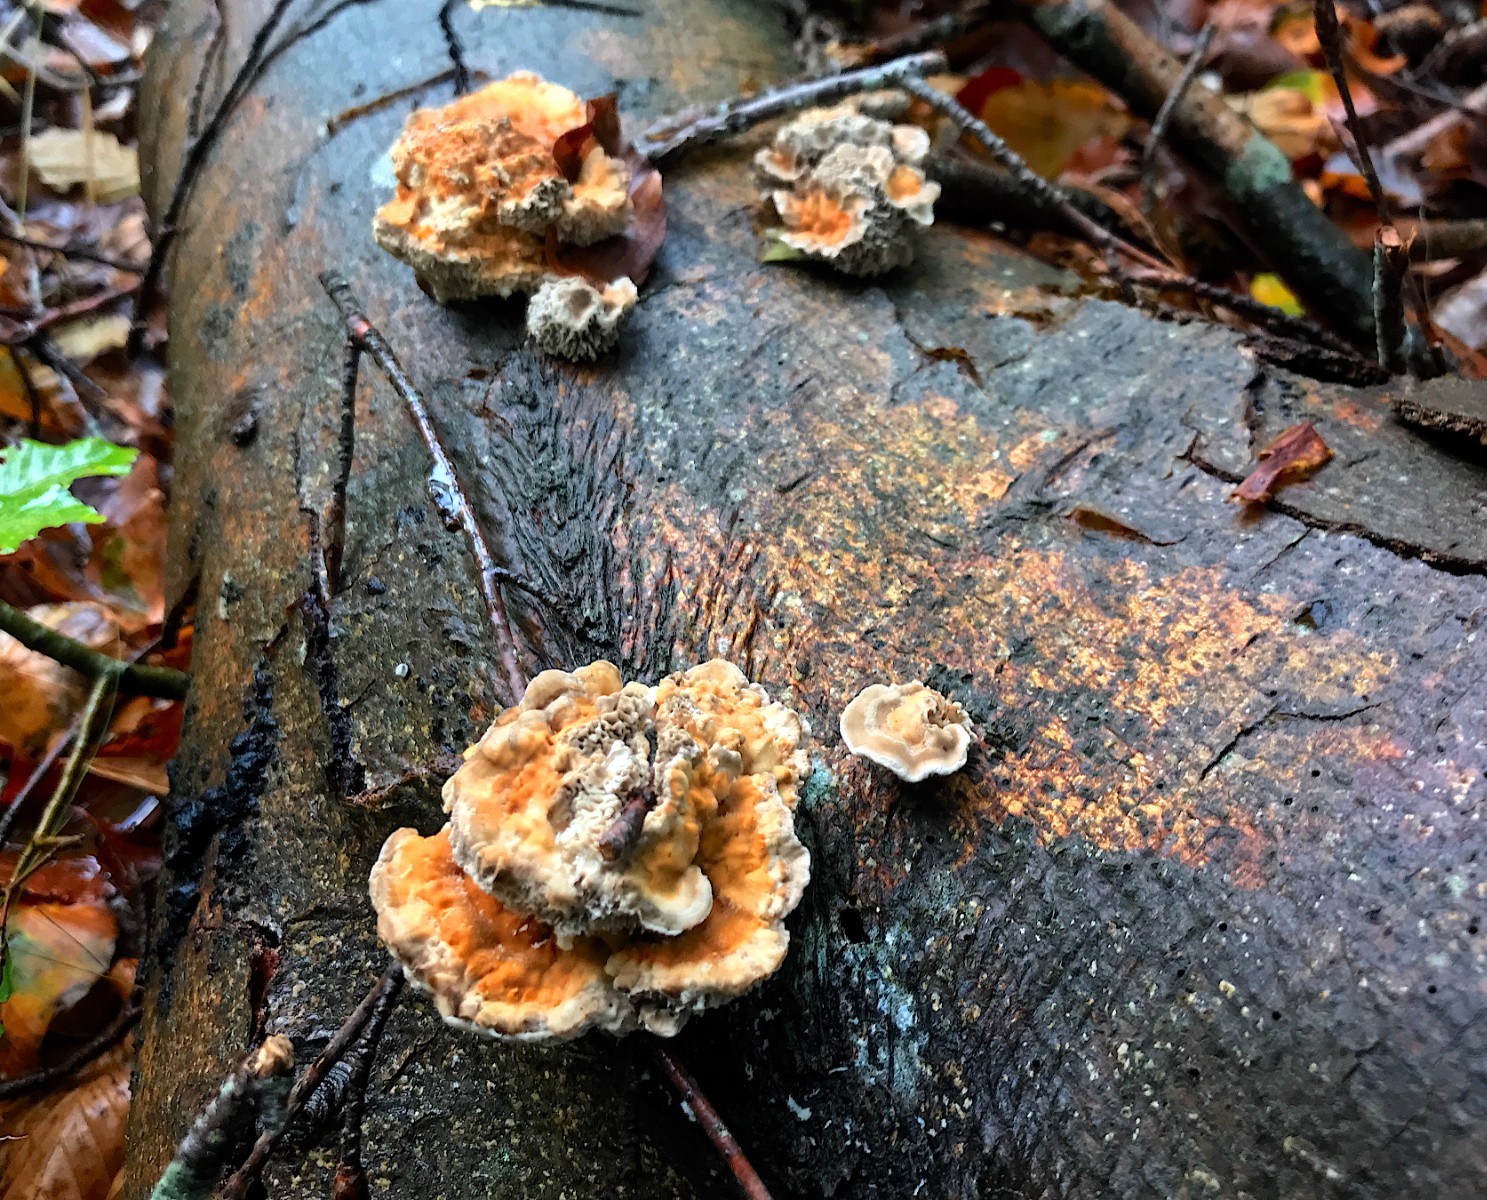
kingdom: Fungi
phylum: Basidiomycota
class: Agaricomycetes
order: Polyporales
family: Polyporaceae
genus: Lenzites
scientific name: Lenzites betulinus
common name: birke-læderporesvamp
